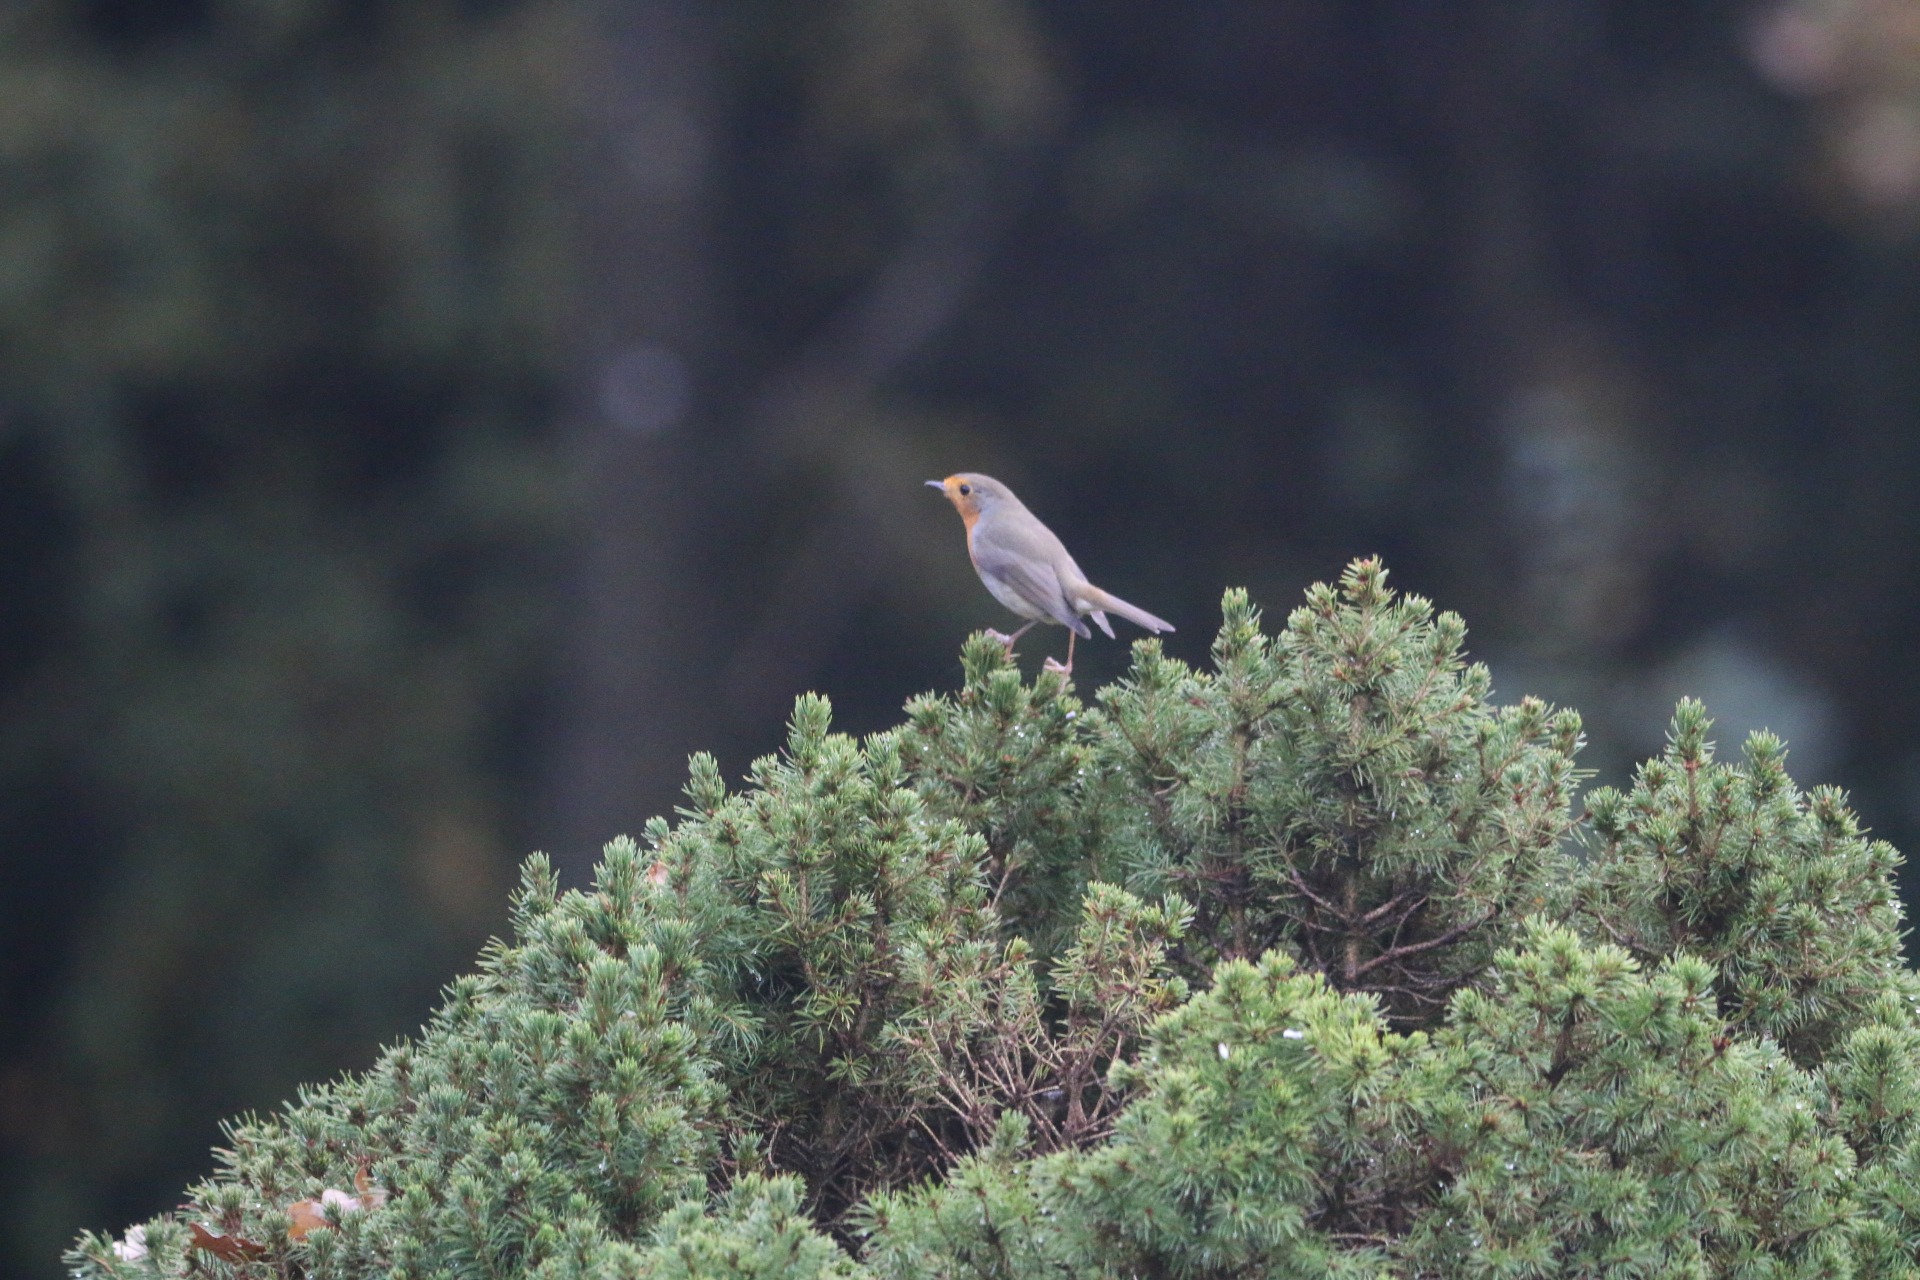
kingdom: Animalia
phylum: Chordata
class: Aves
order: Passeriformes
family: Muscicapidae
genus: Erithacus
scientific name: Erithacus rubecula
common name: Rødhals/rødkælk
